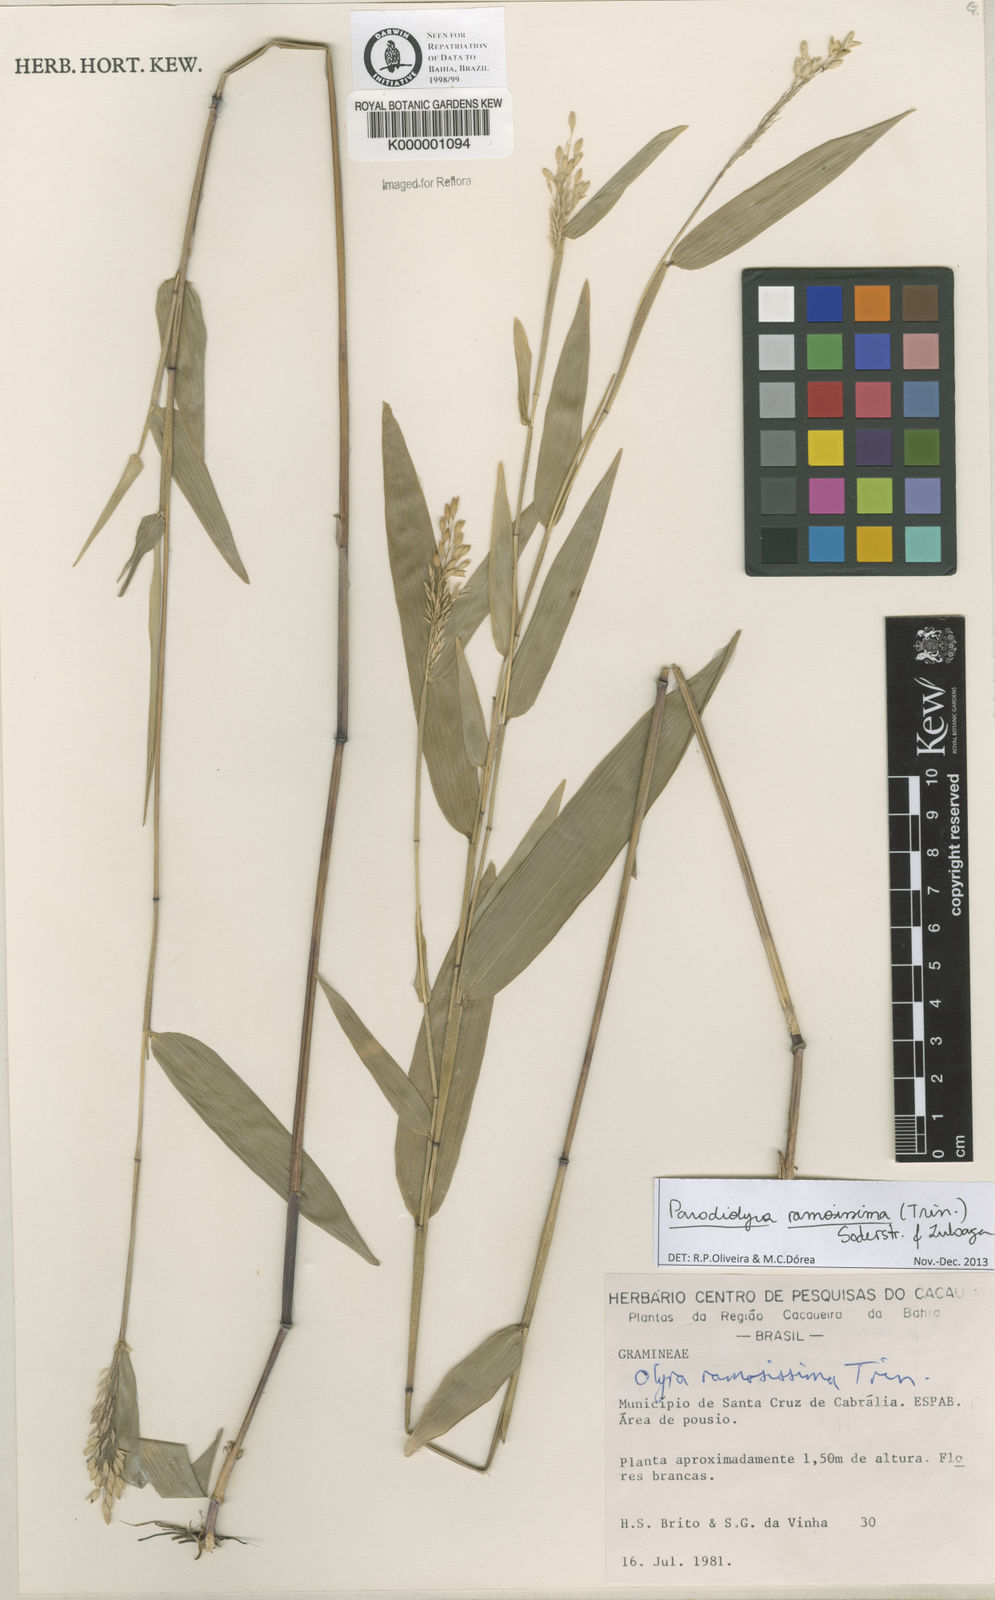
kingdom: Plantae
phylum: Tracheophyta
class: Liliopsida
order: Poales
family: Poaceae
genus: Parodiolyra
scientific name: Parodiolyra ramosissima
